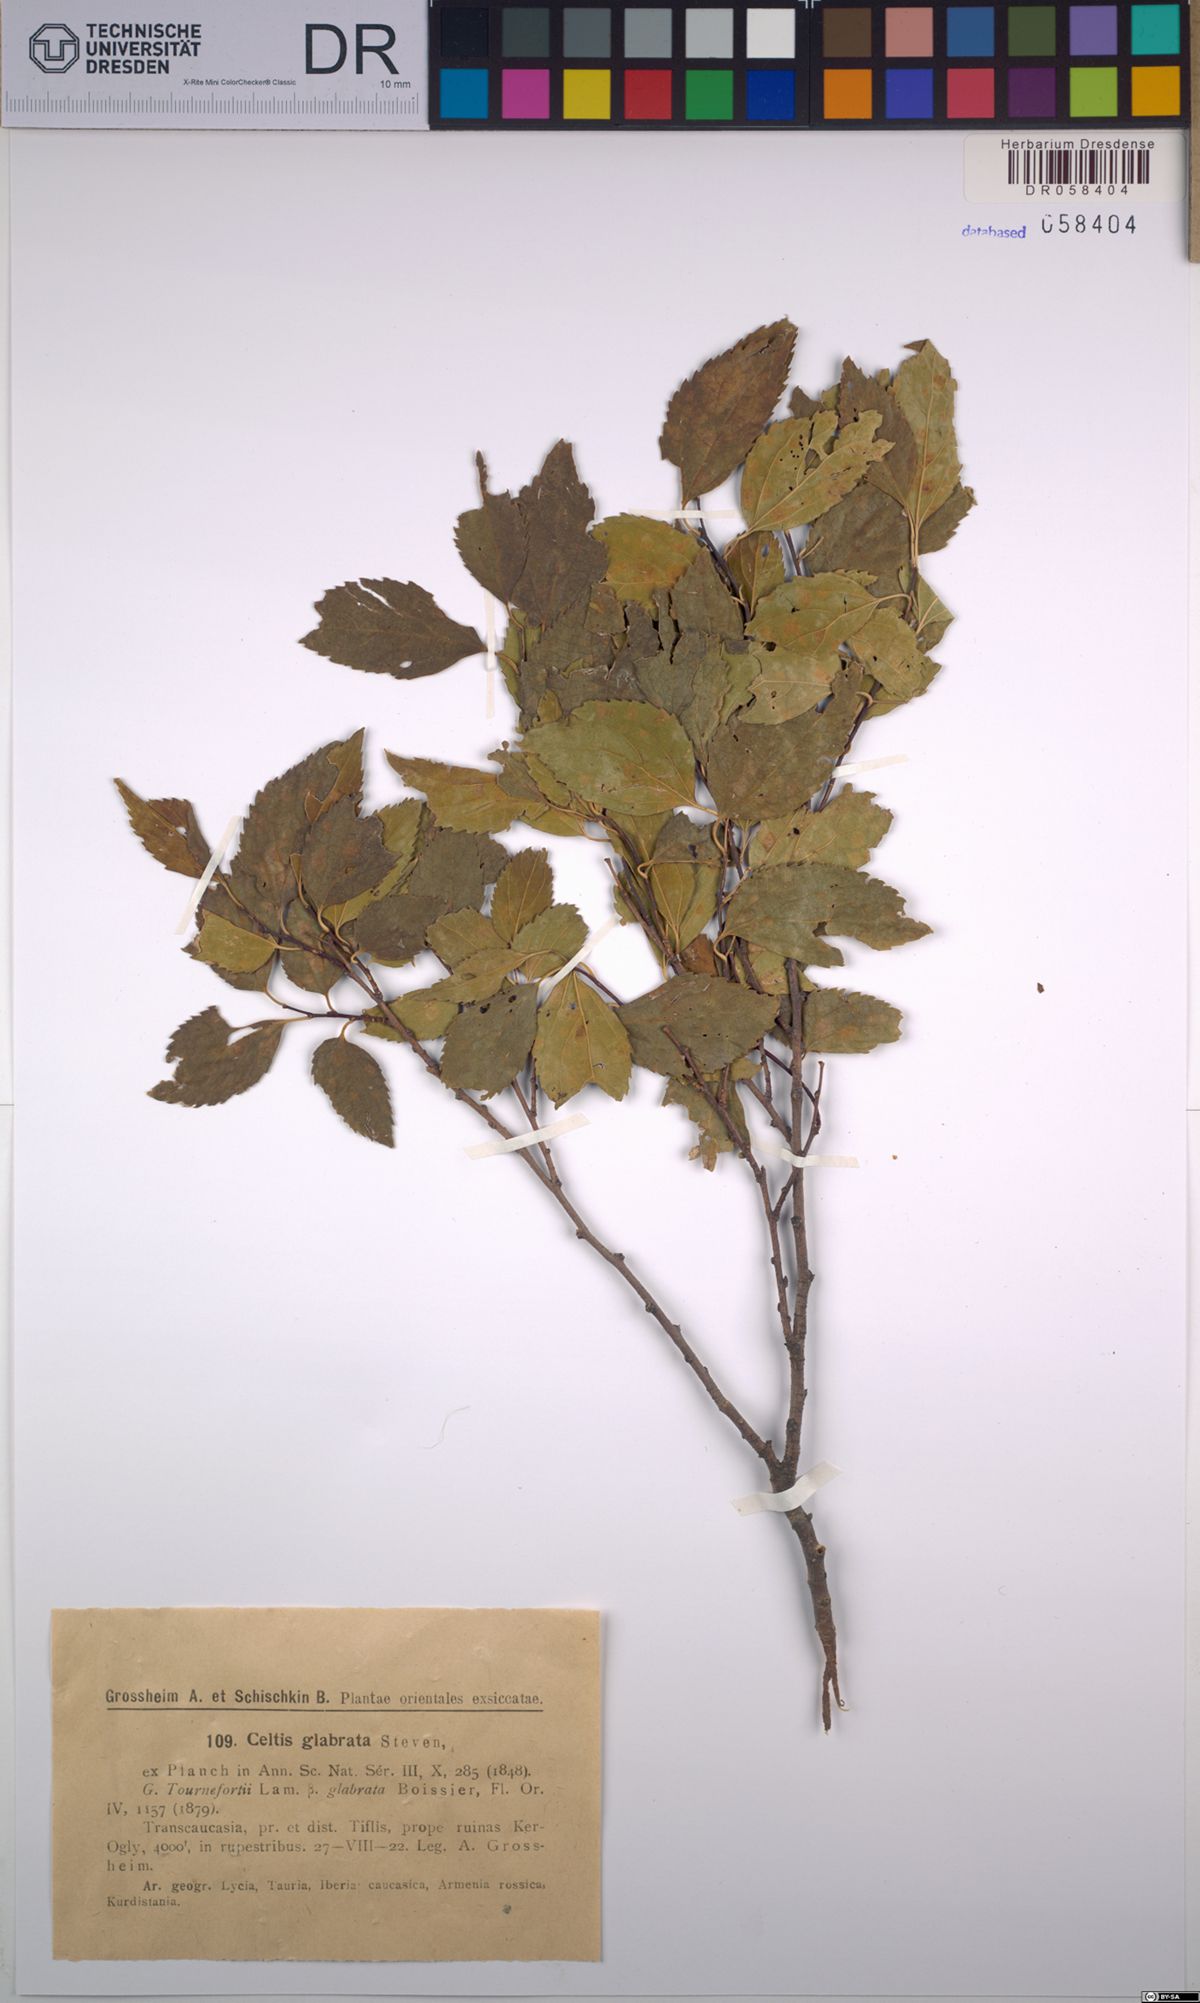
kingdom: Plantae
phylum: Tracheophyta
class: Magnoliopsida
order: Rosales
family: Cannabaceae
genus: Celtis
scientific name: Celtis glabrata
